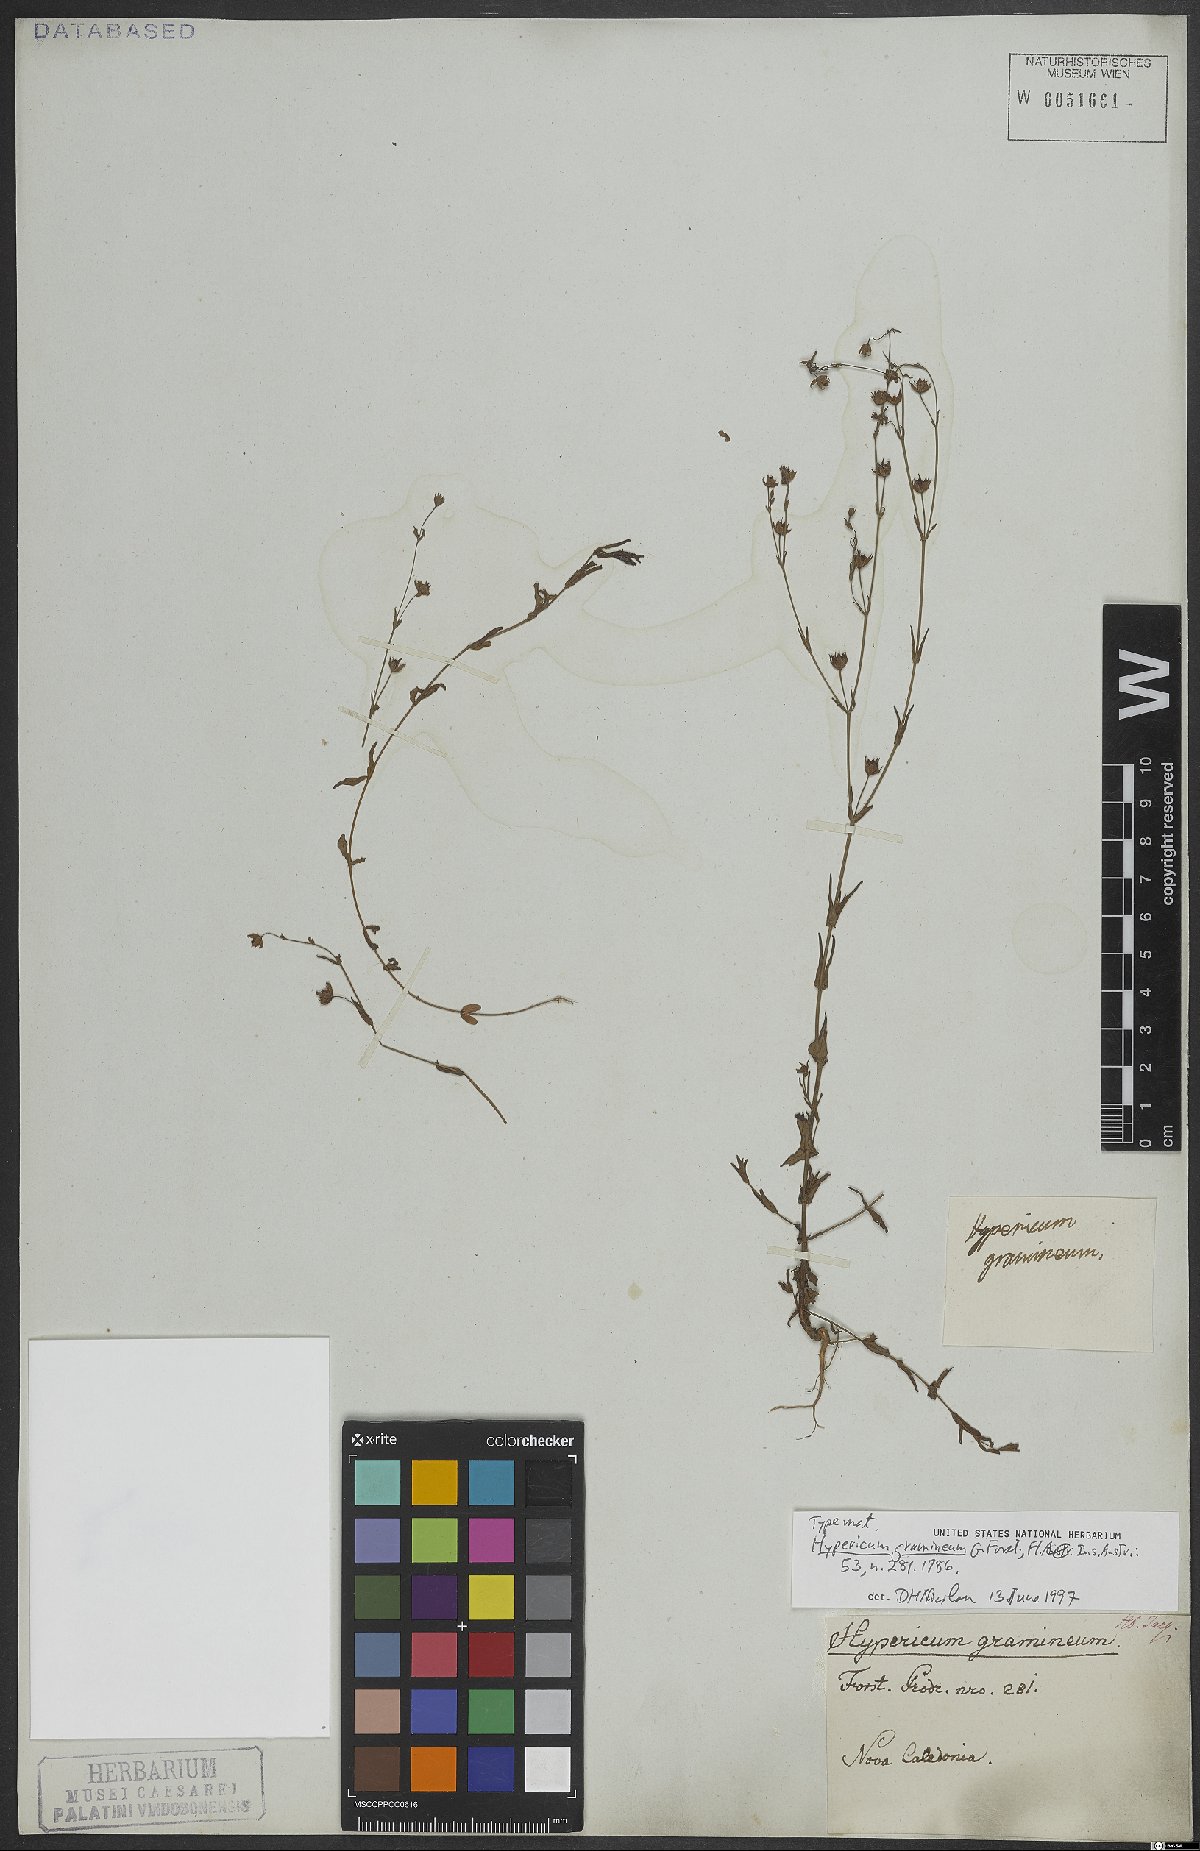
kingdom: Plantae
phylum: Tracheophyta
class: Magnoliopsida
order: Malpighiales
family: Hypericaceae
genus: Hypericum
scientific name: Hypericum gramineum
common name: Grassy st. johnswort
